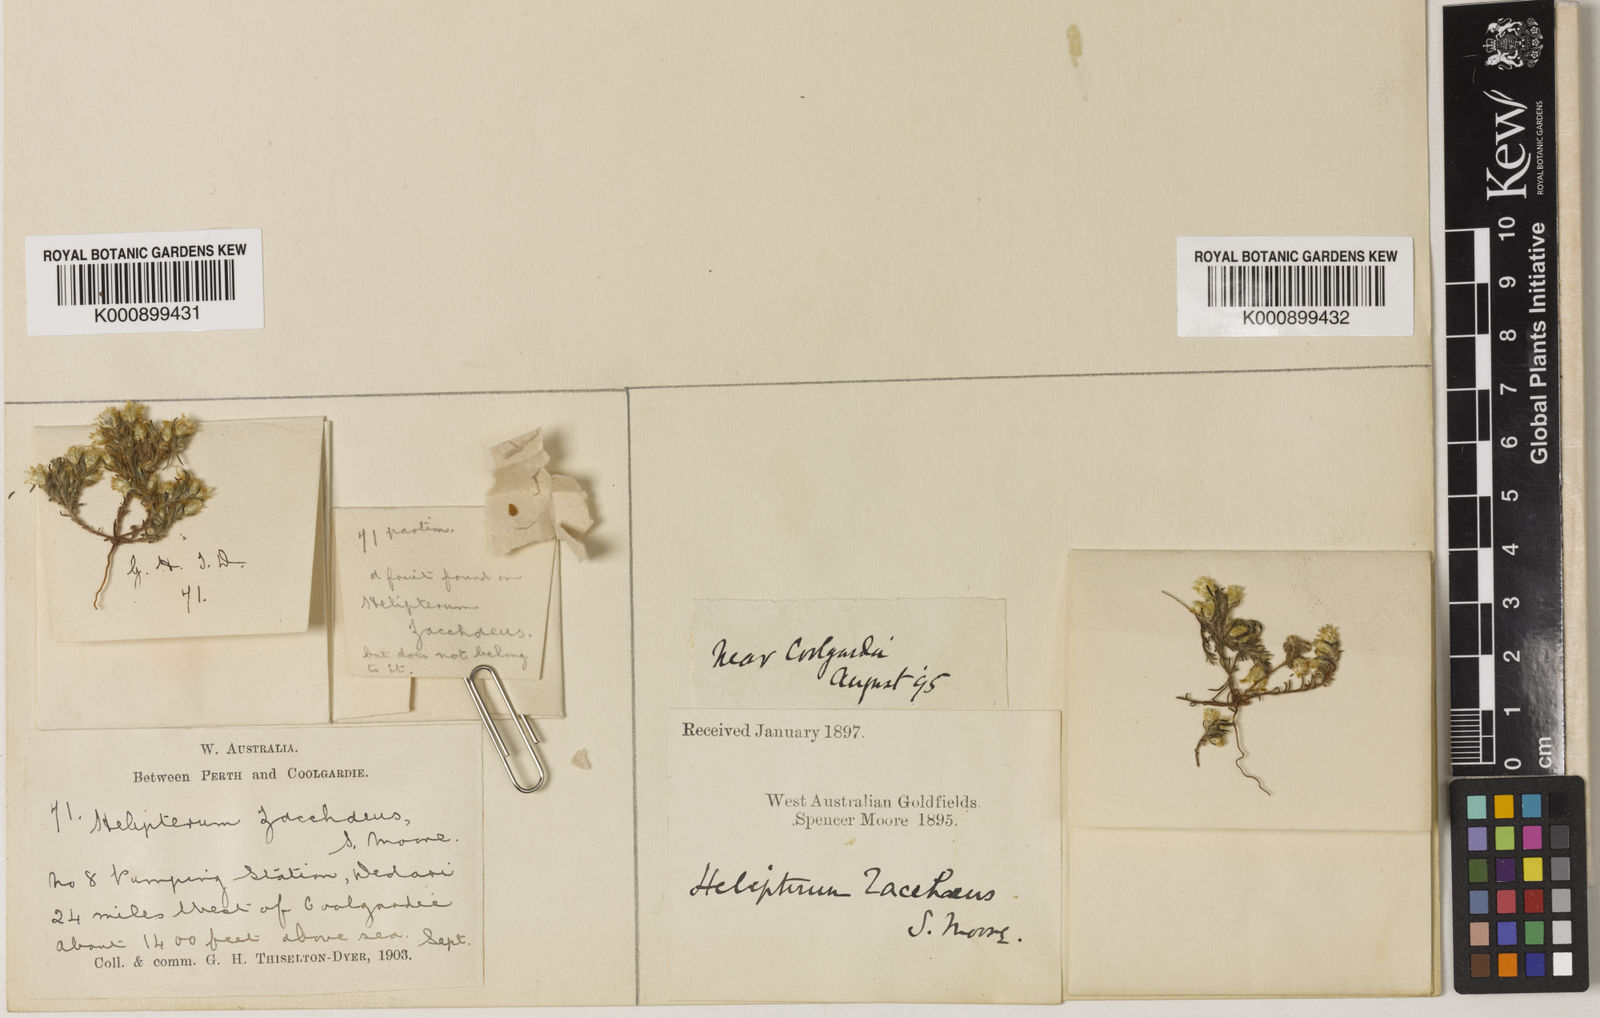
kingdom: Plantae
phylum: Tracheophyta
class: Magnoliopsida
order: Asterales
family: Asteraceae
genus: Hyalosperma
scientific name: Hyalosperma zacchaeus
